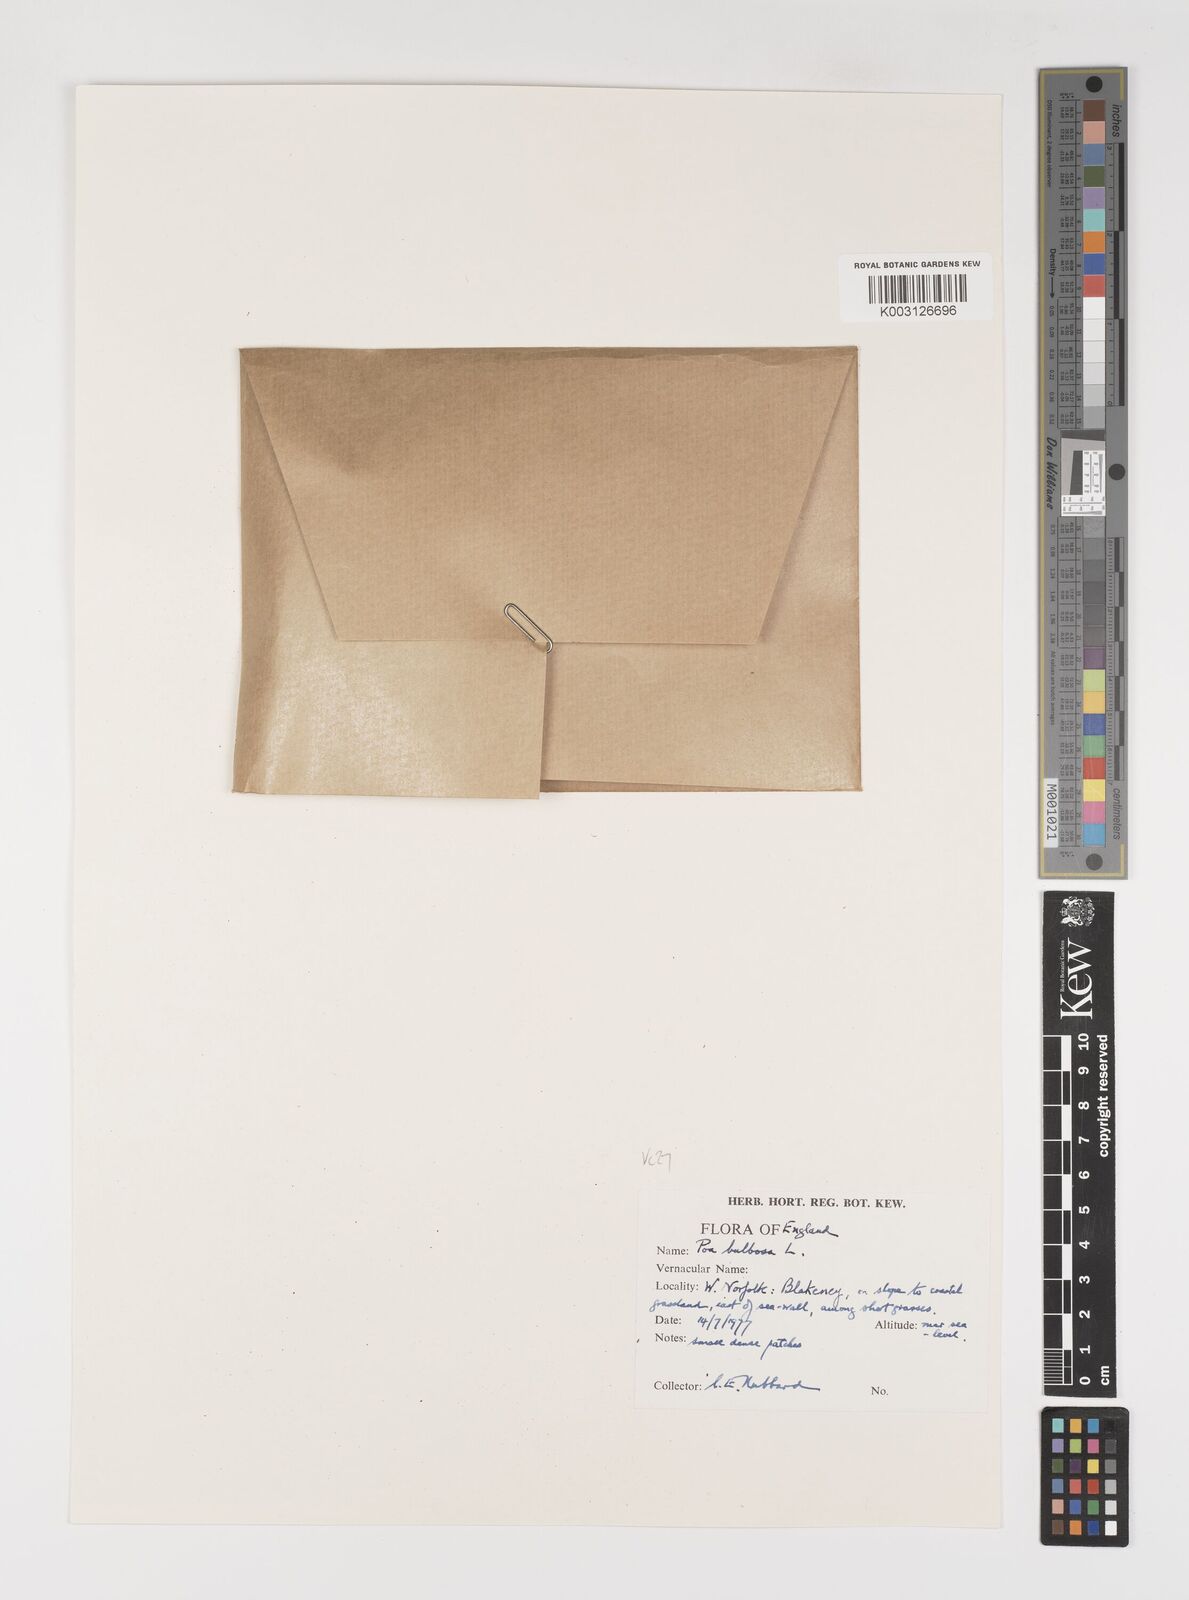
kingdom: Plantae
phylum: Tracheophyta
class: Liliopsida
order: Poales
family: Poaceae
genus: Poa
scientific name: Poa bulbosa
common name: Bulbous bluegrass
